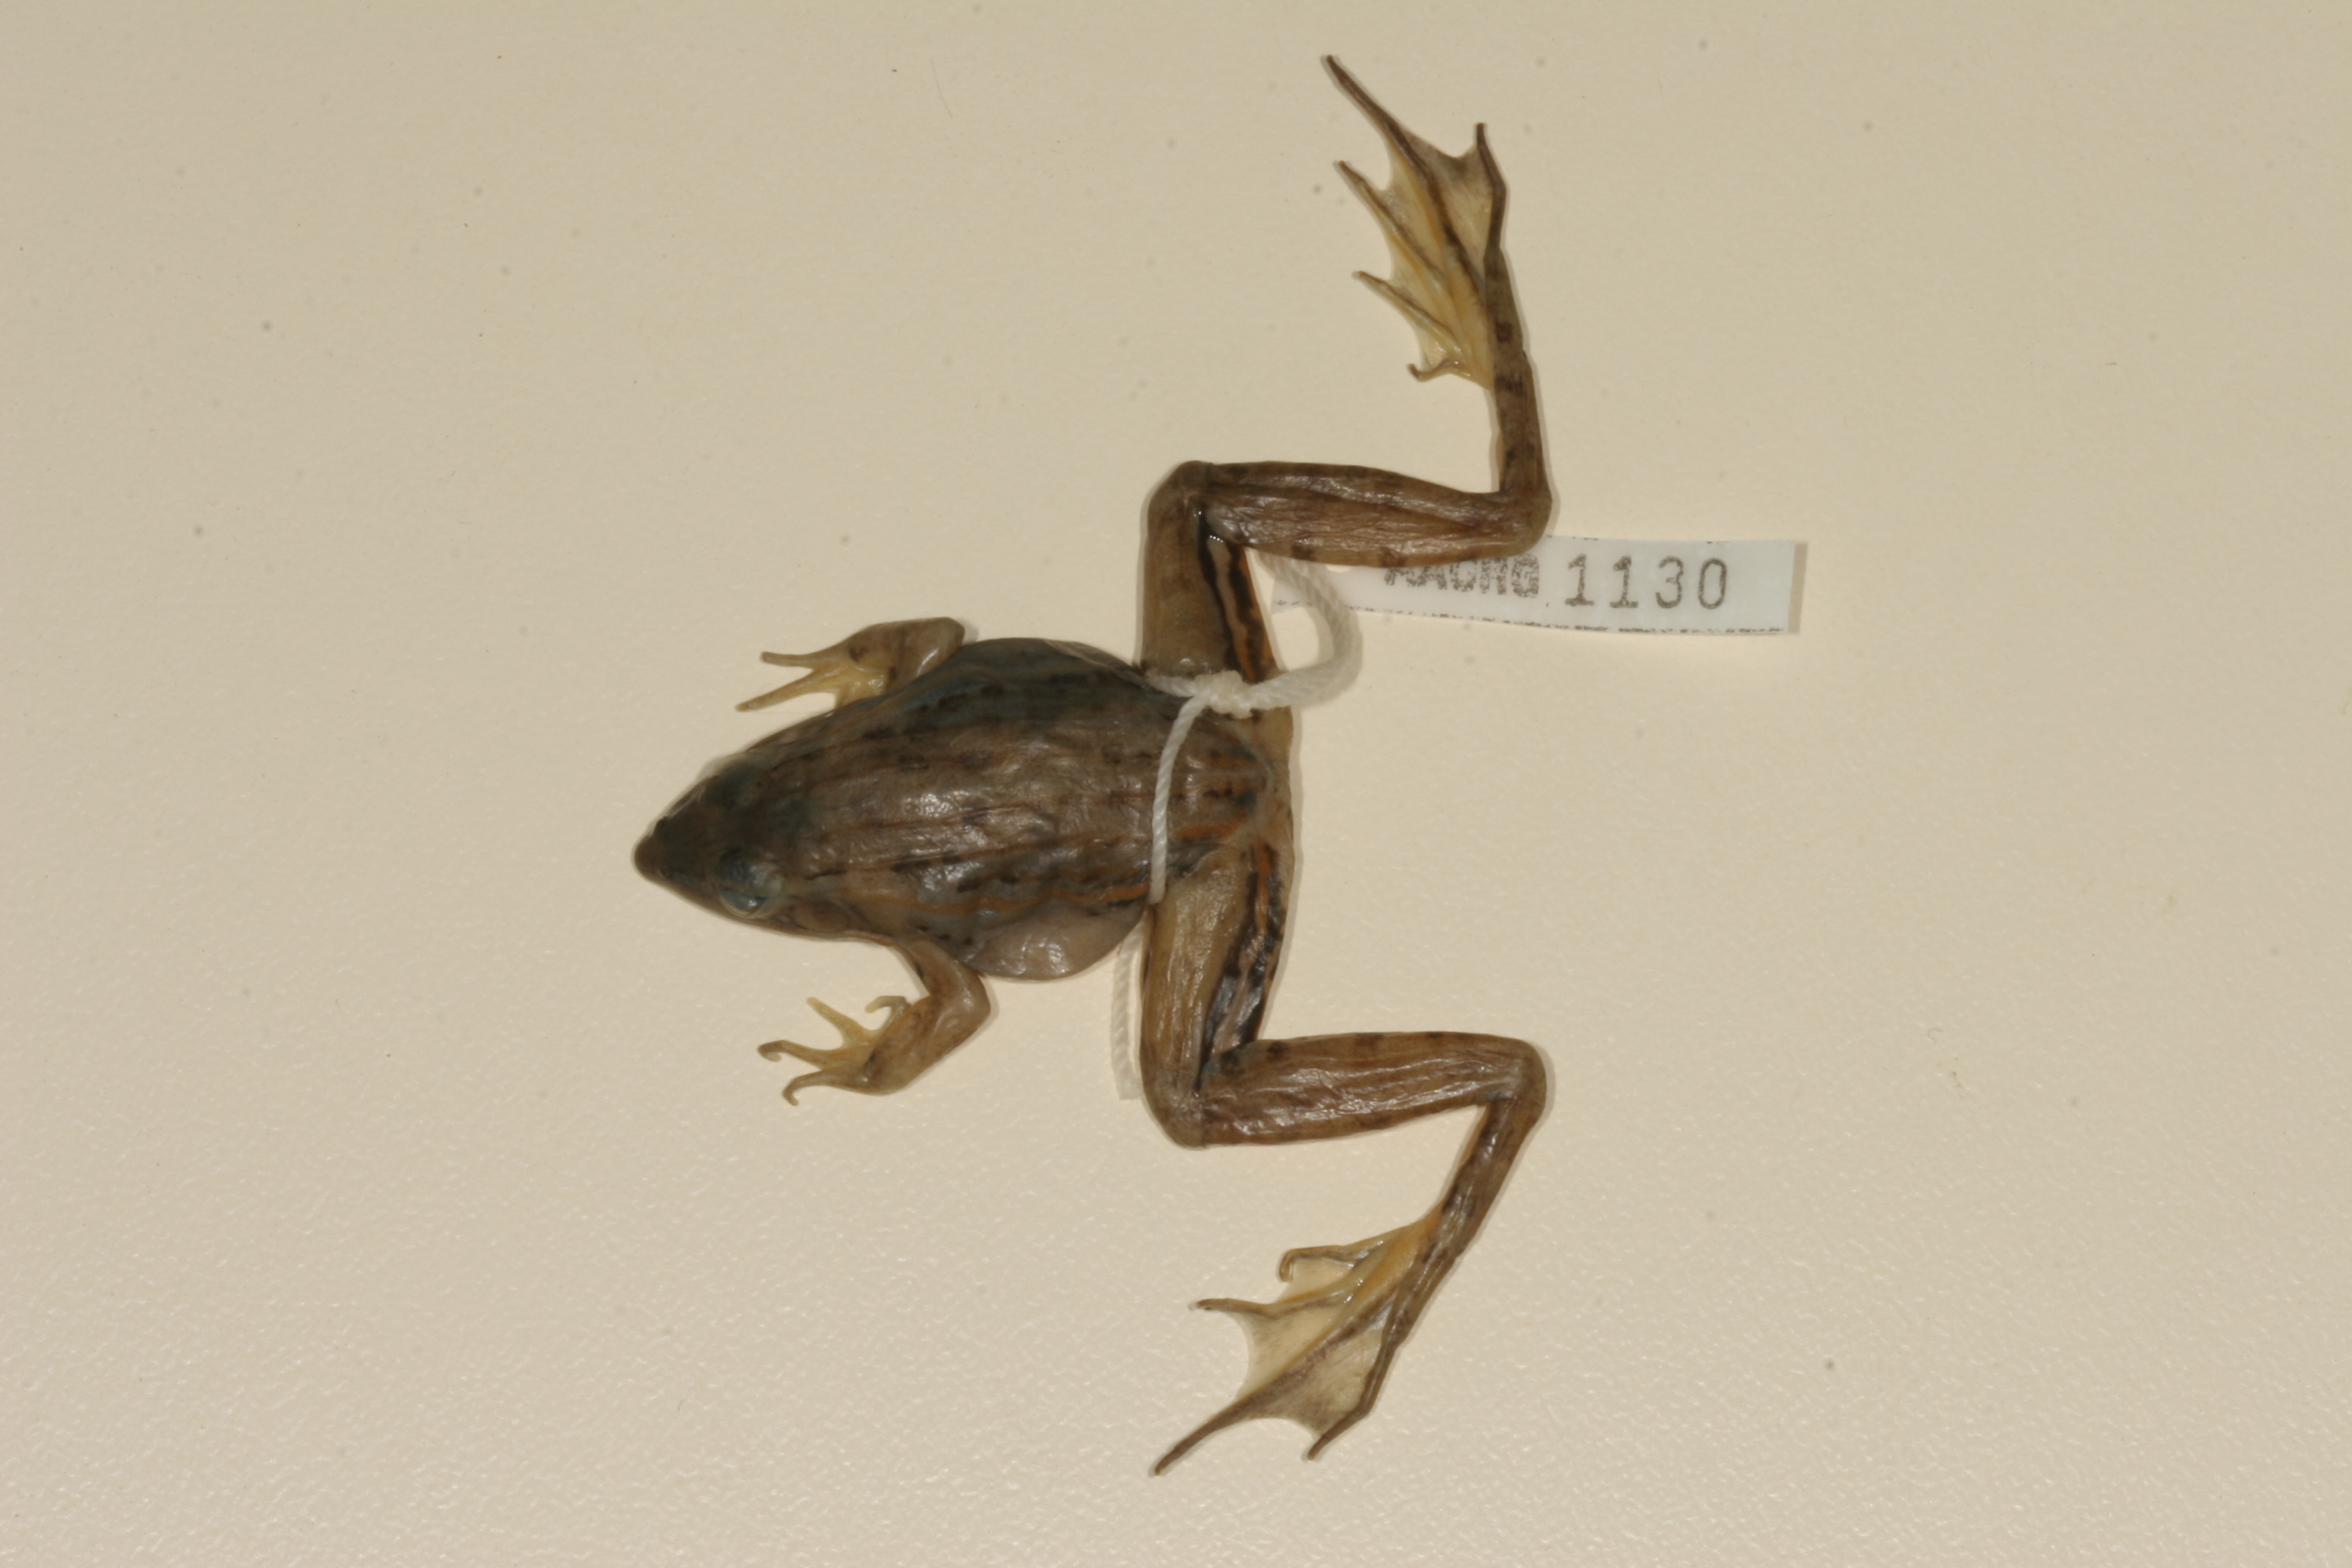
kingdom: Animalia
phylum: Chordata
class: Amphibia
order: Anura
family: Ptychadenidae
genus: Ptychadena
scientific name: Ptychadena taenioscelis
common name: Lukula grassland frog
